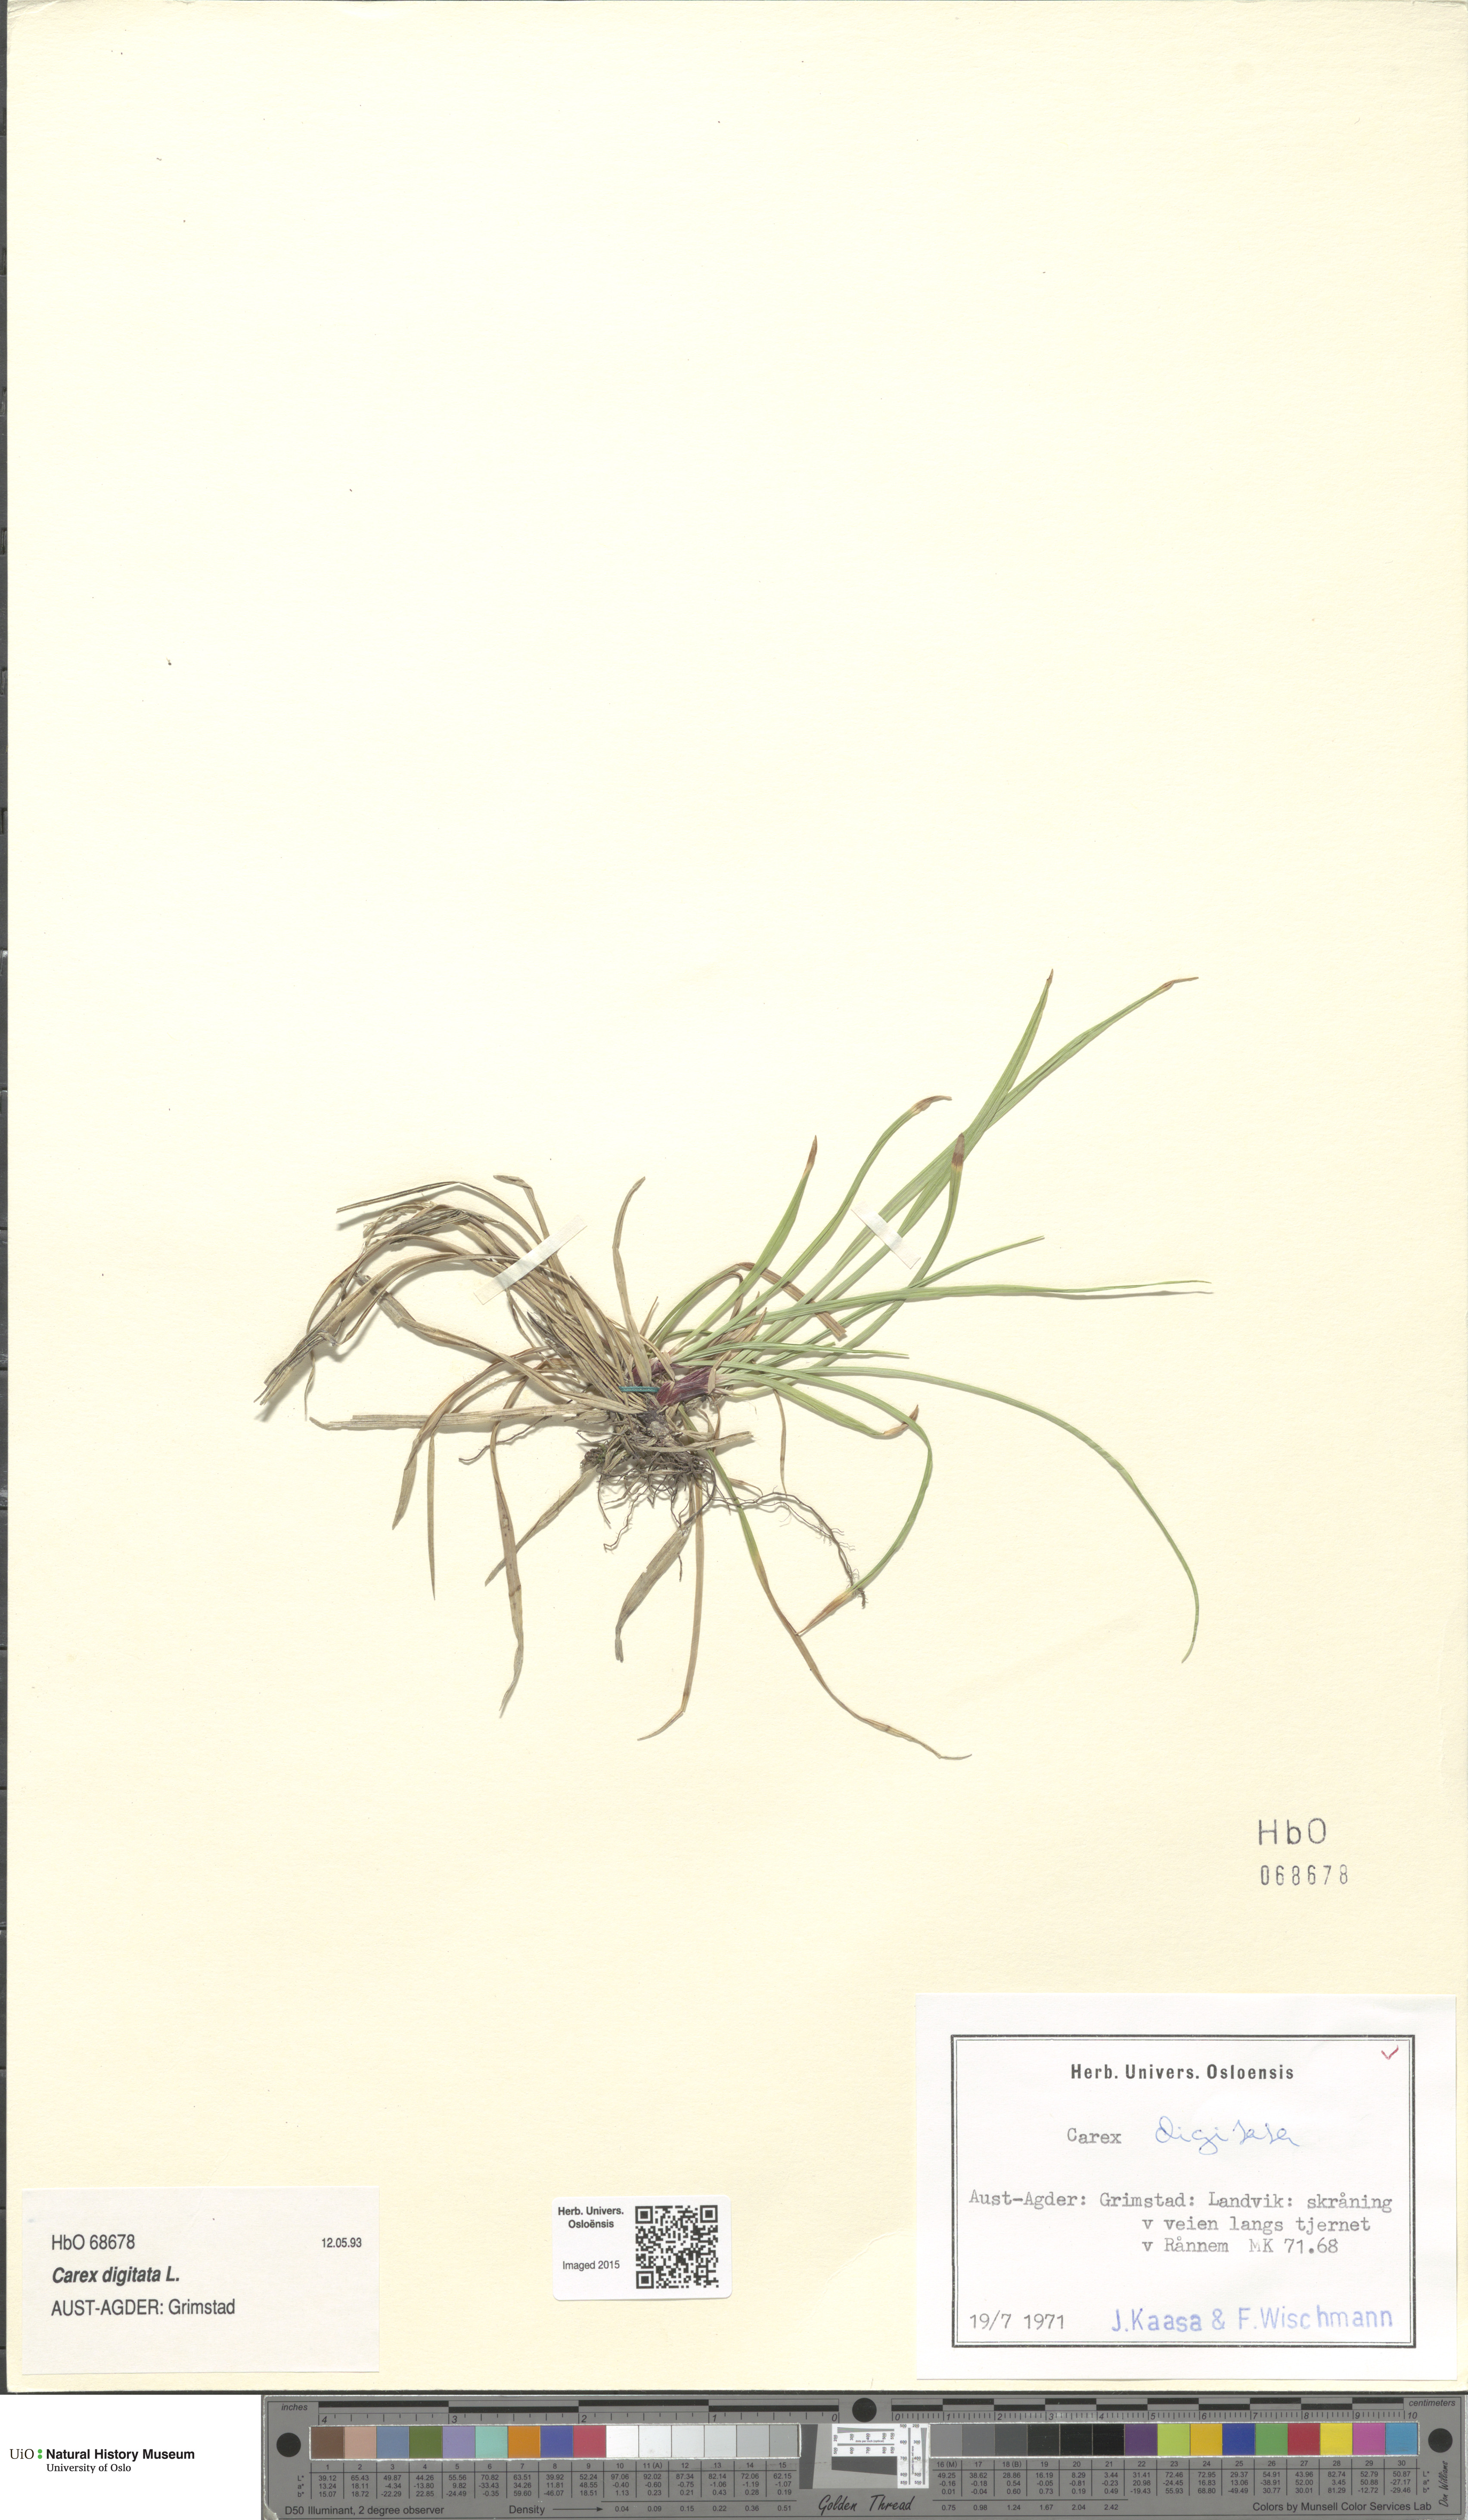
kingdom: Plantae
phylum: Tracheophyta
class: Liliopsida
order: Poales
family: Cyperaceae
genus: Carex
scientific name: Carex digitata
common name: Fingered sedge
